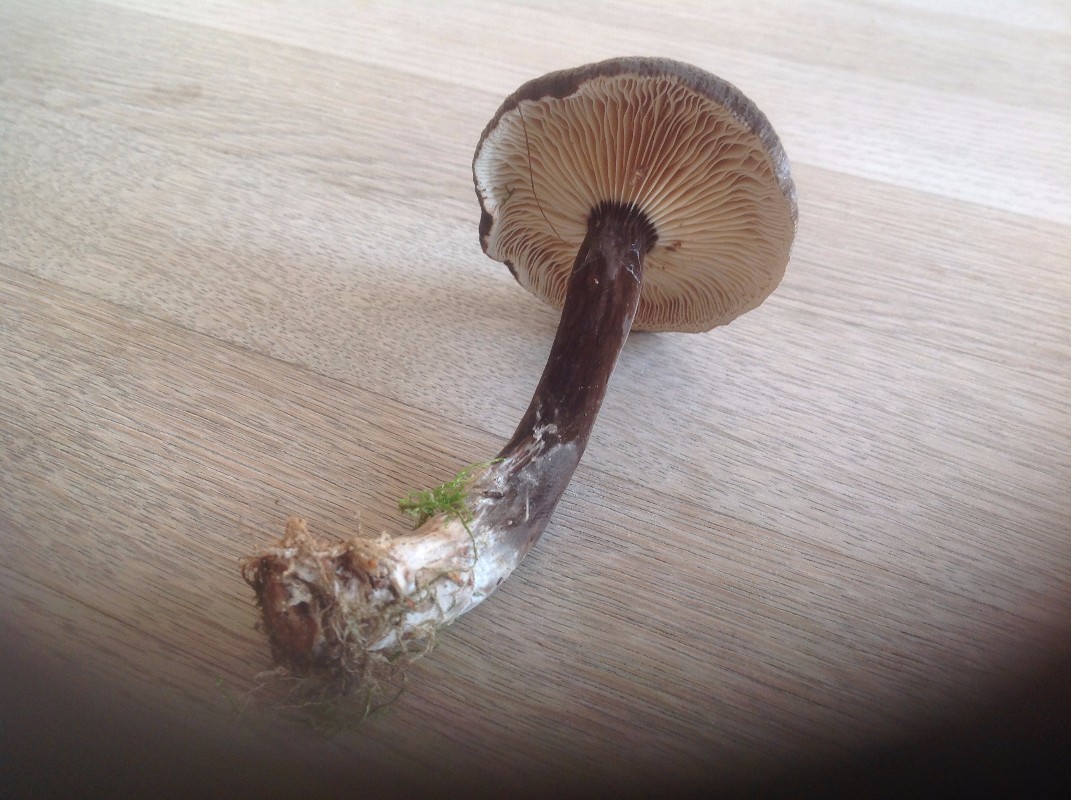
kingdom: Fungi
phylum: Basidiomycota
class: Agaricomycetes
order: Russulales
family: Russulaceae
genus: Lactarius
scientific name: Lactarius lignyotus
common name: fløjls-mælkehat
